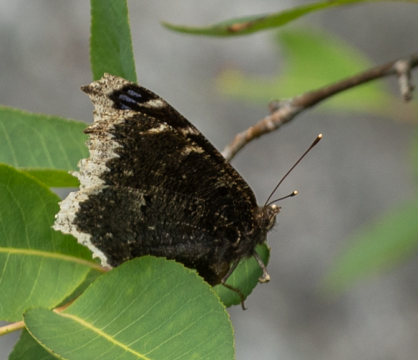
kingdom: Animalia
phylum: Arthropoda
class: Insecta
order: Lepidoptera
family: Nymphalidae
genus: Nymphalis
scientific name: Nymphalis antiopa
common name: Mourning Cloak
